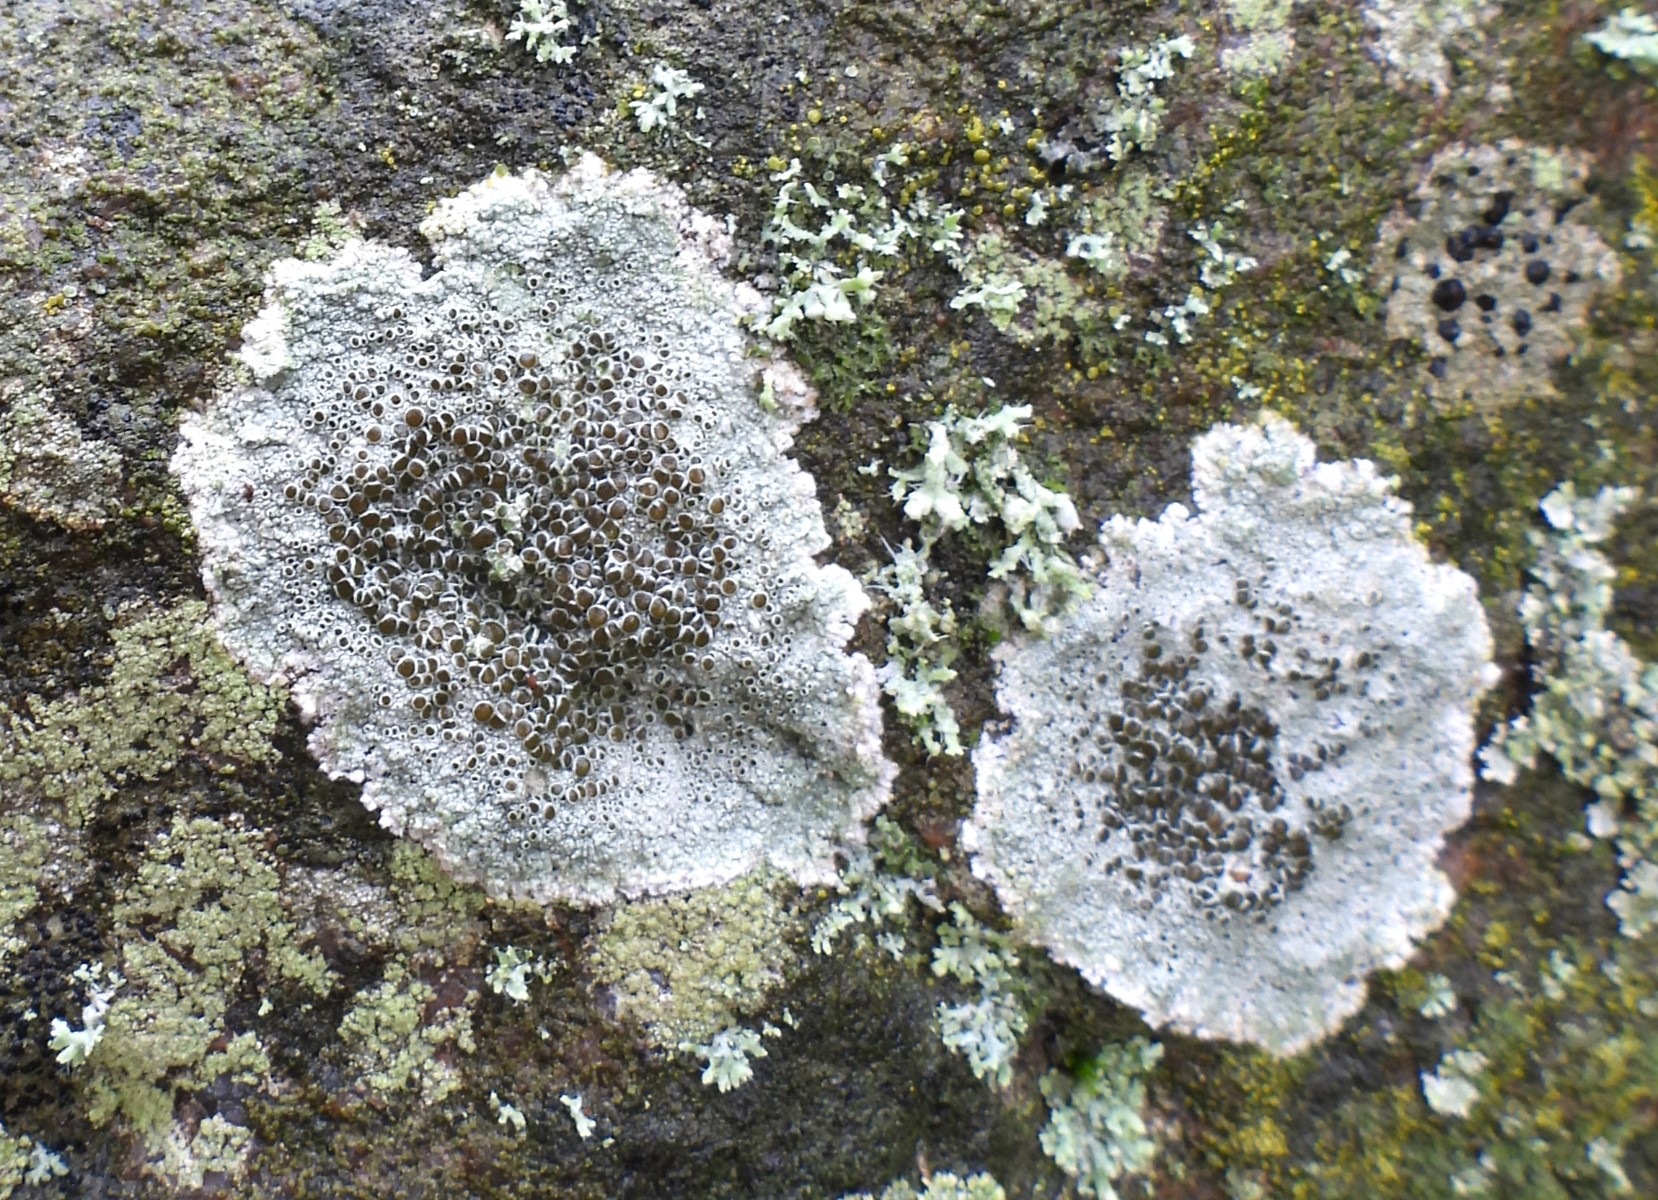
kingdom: Fungi
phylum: Ascomycota
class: Lecanoromycetes
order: Lecanorales
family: Lecanoraceae
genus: Lecanora
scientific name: Lecanora campestris
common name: mur-kantskivelav
